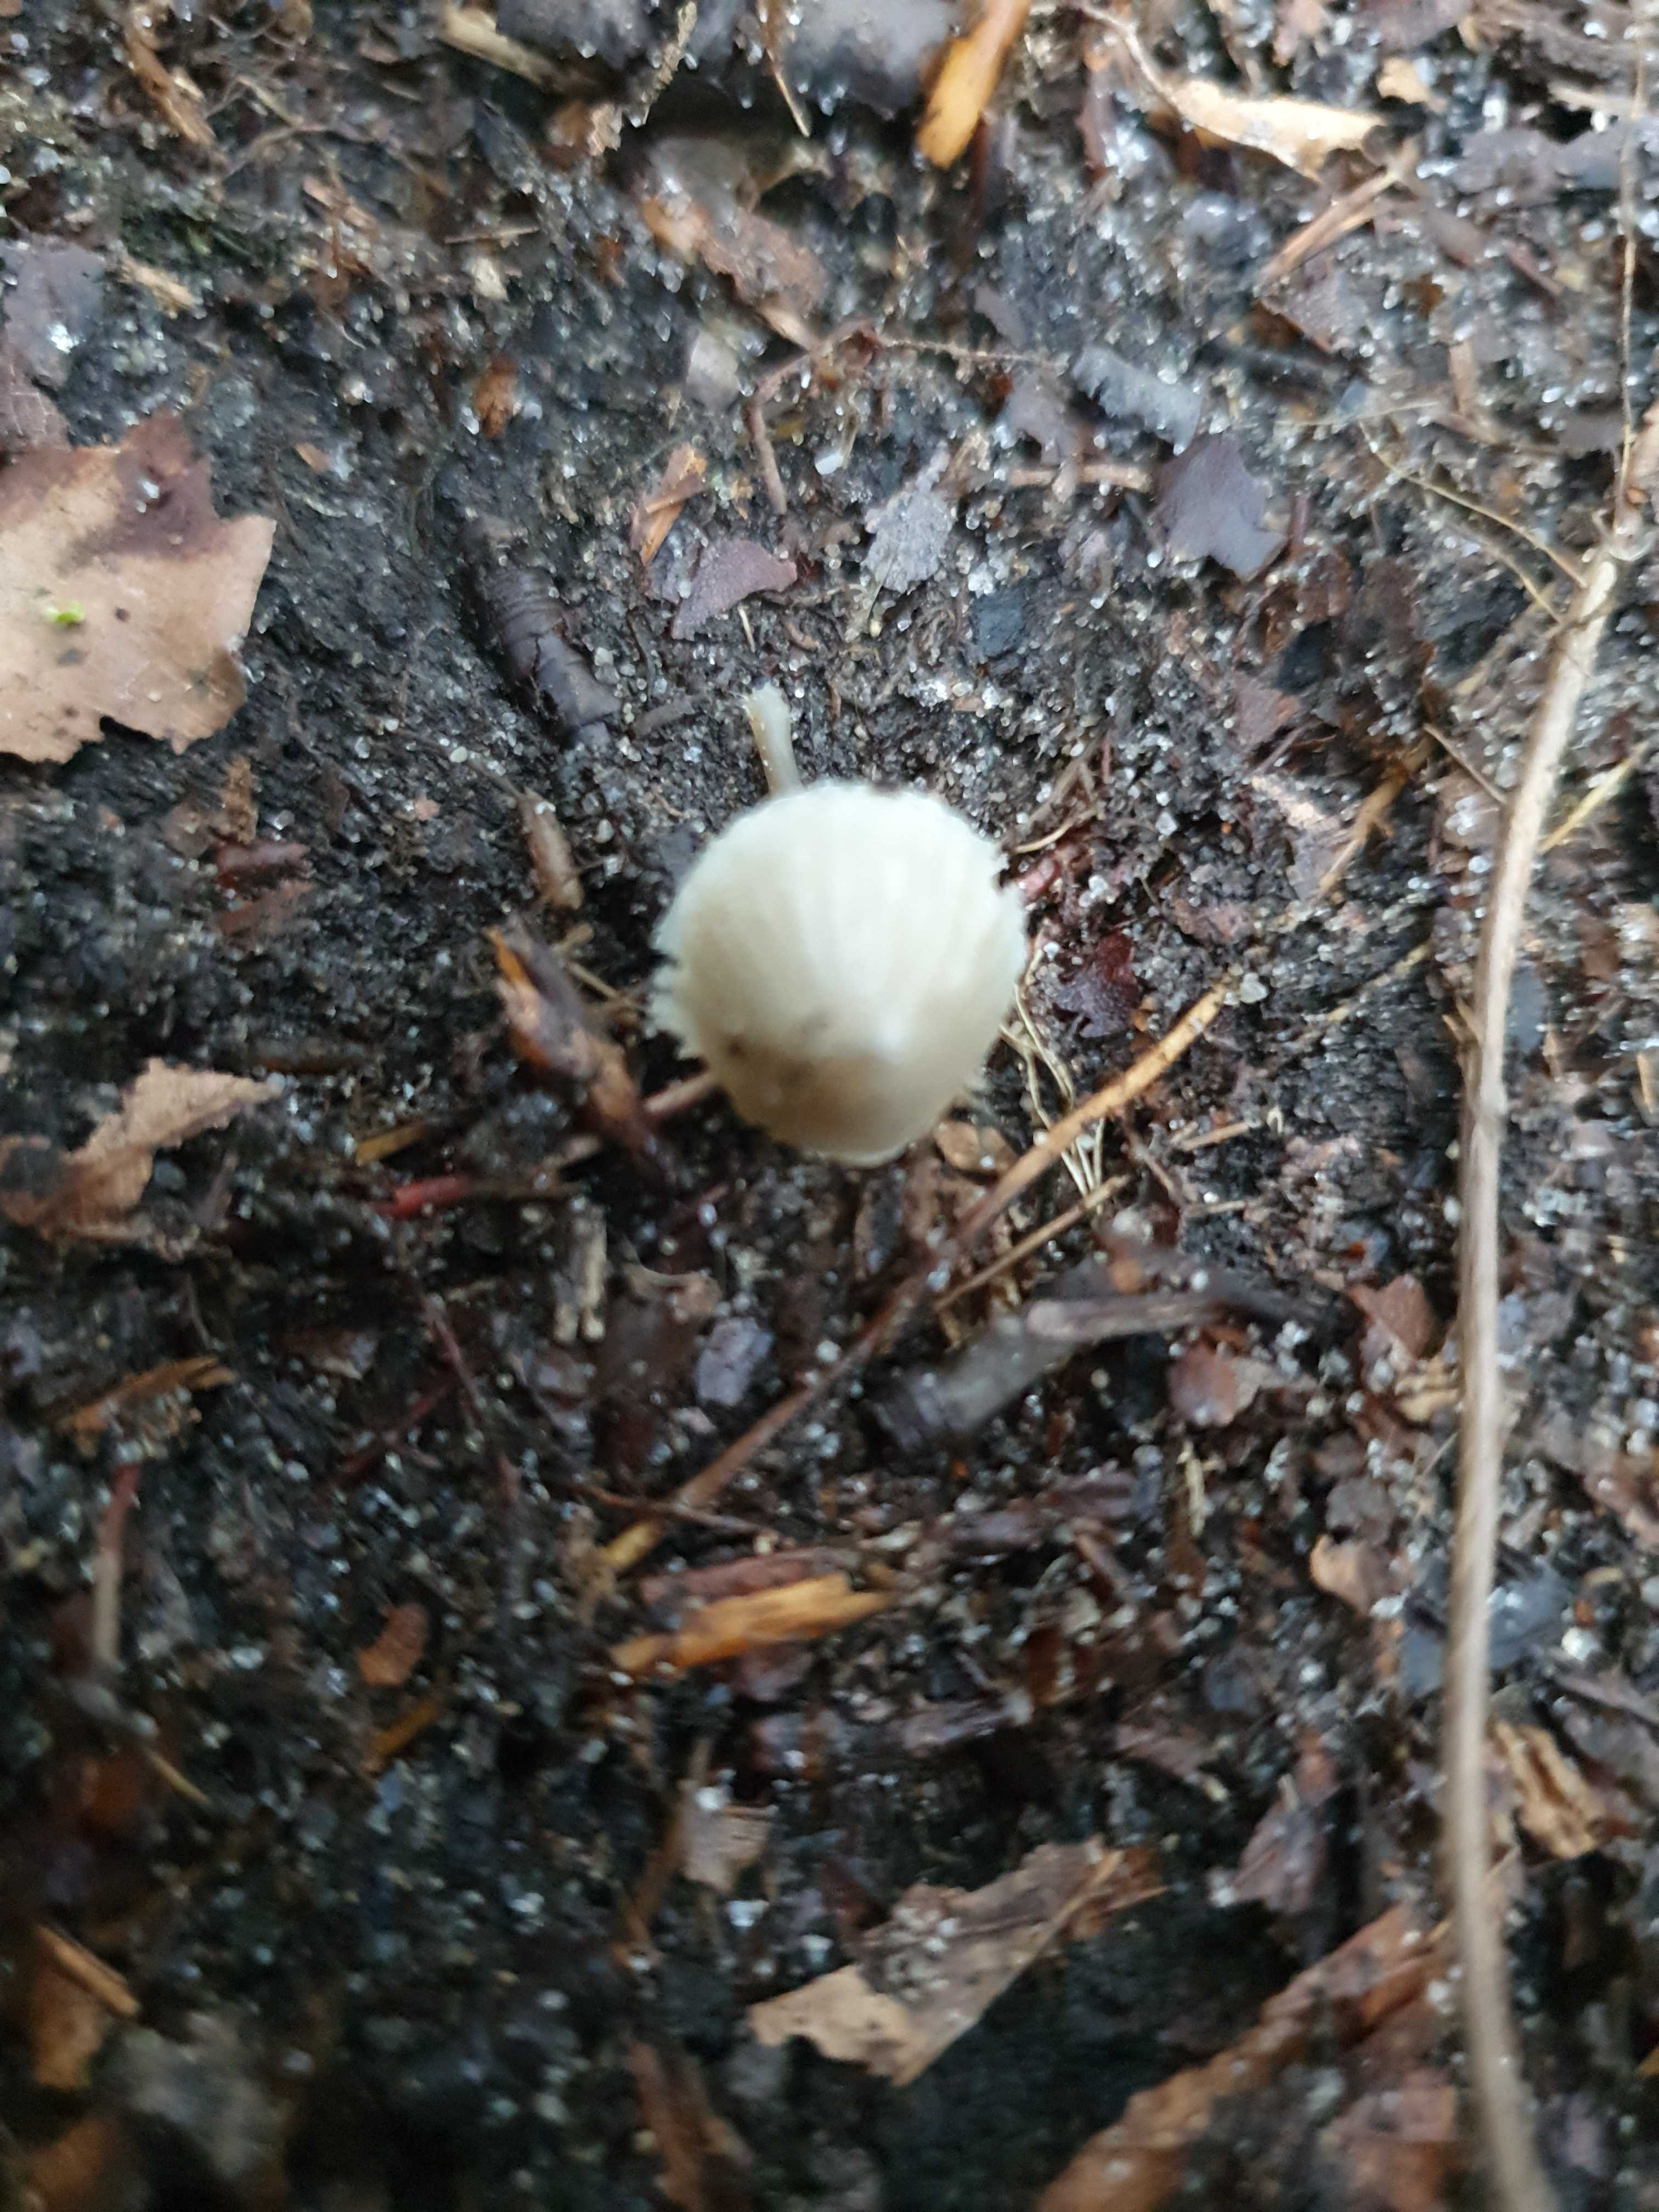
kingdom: Fungi
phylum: Basidiomycota
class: Agaricomycetes
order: Agaricales
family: Mycenaceae
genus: Mycena
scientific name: Mycena
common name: huesvamp
